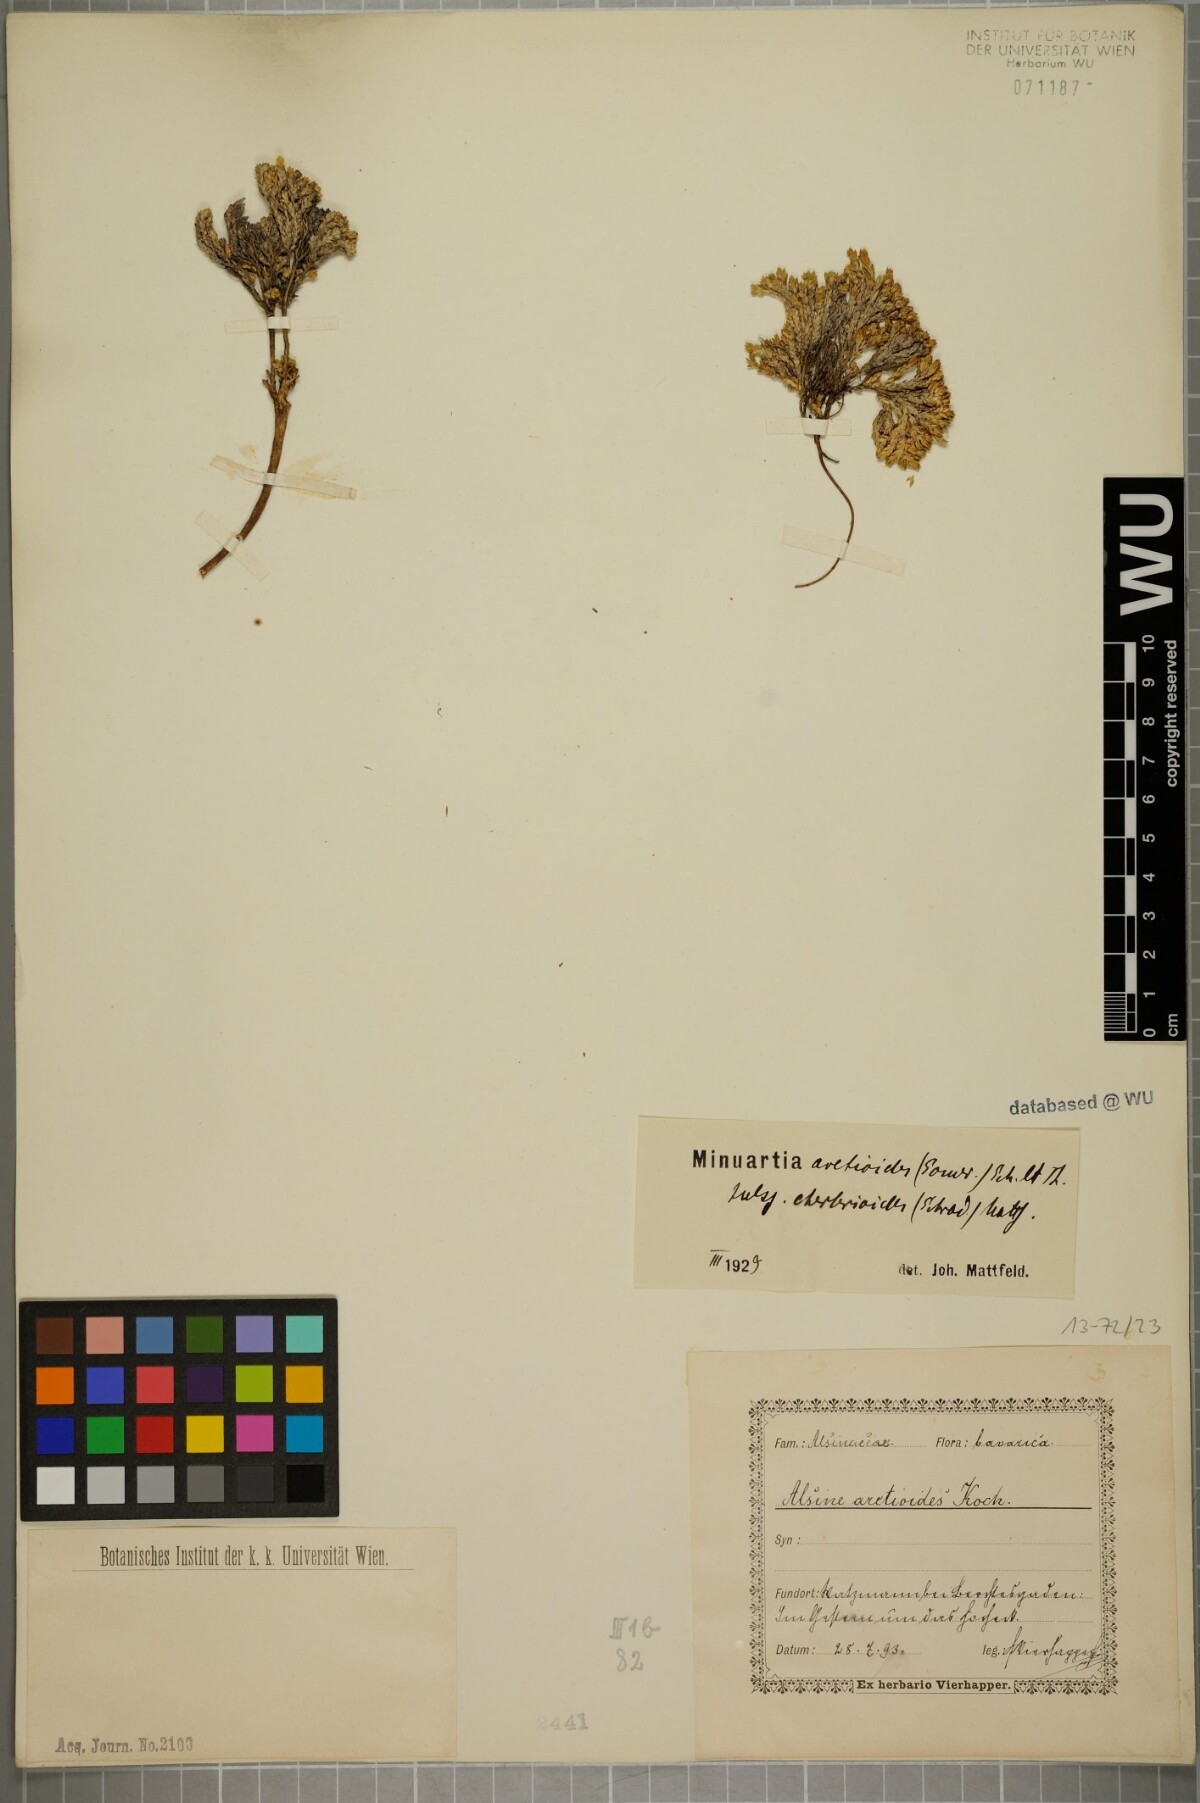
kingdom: Plantae
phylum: Tracheophyta
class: Magnoliopsida
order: Caryophyllales
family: Caryophyllaceae
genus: Facchinia
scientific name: Facchinia cherlerioides
